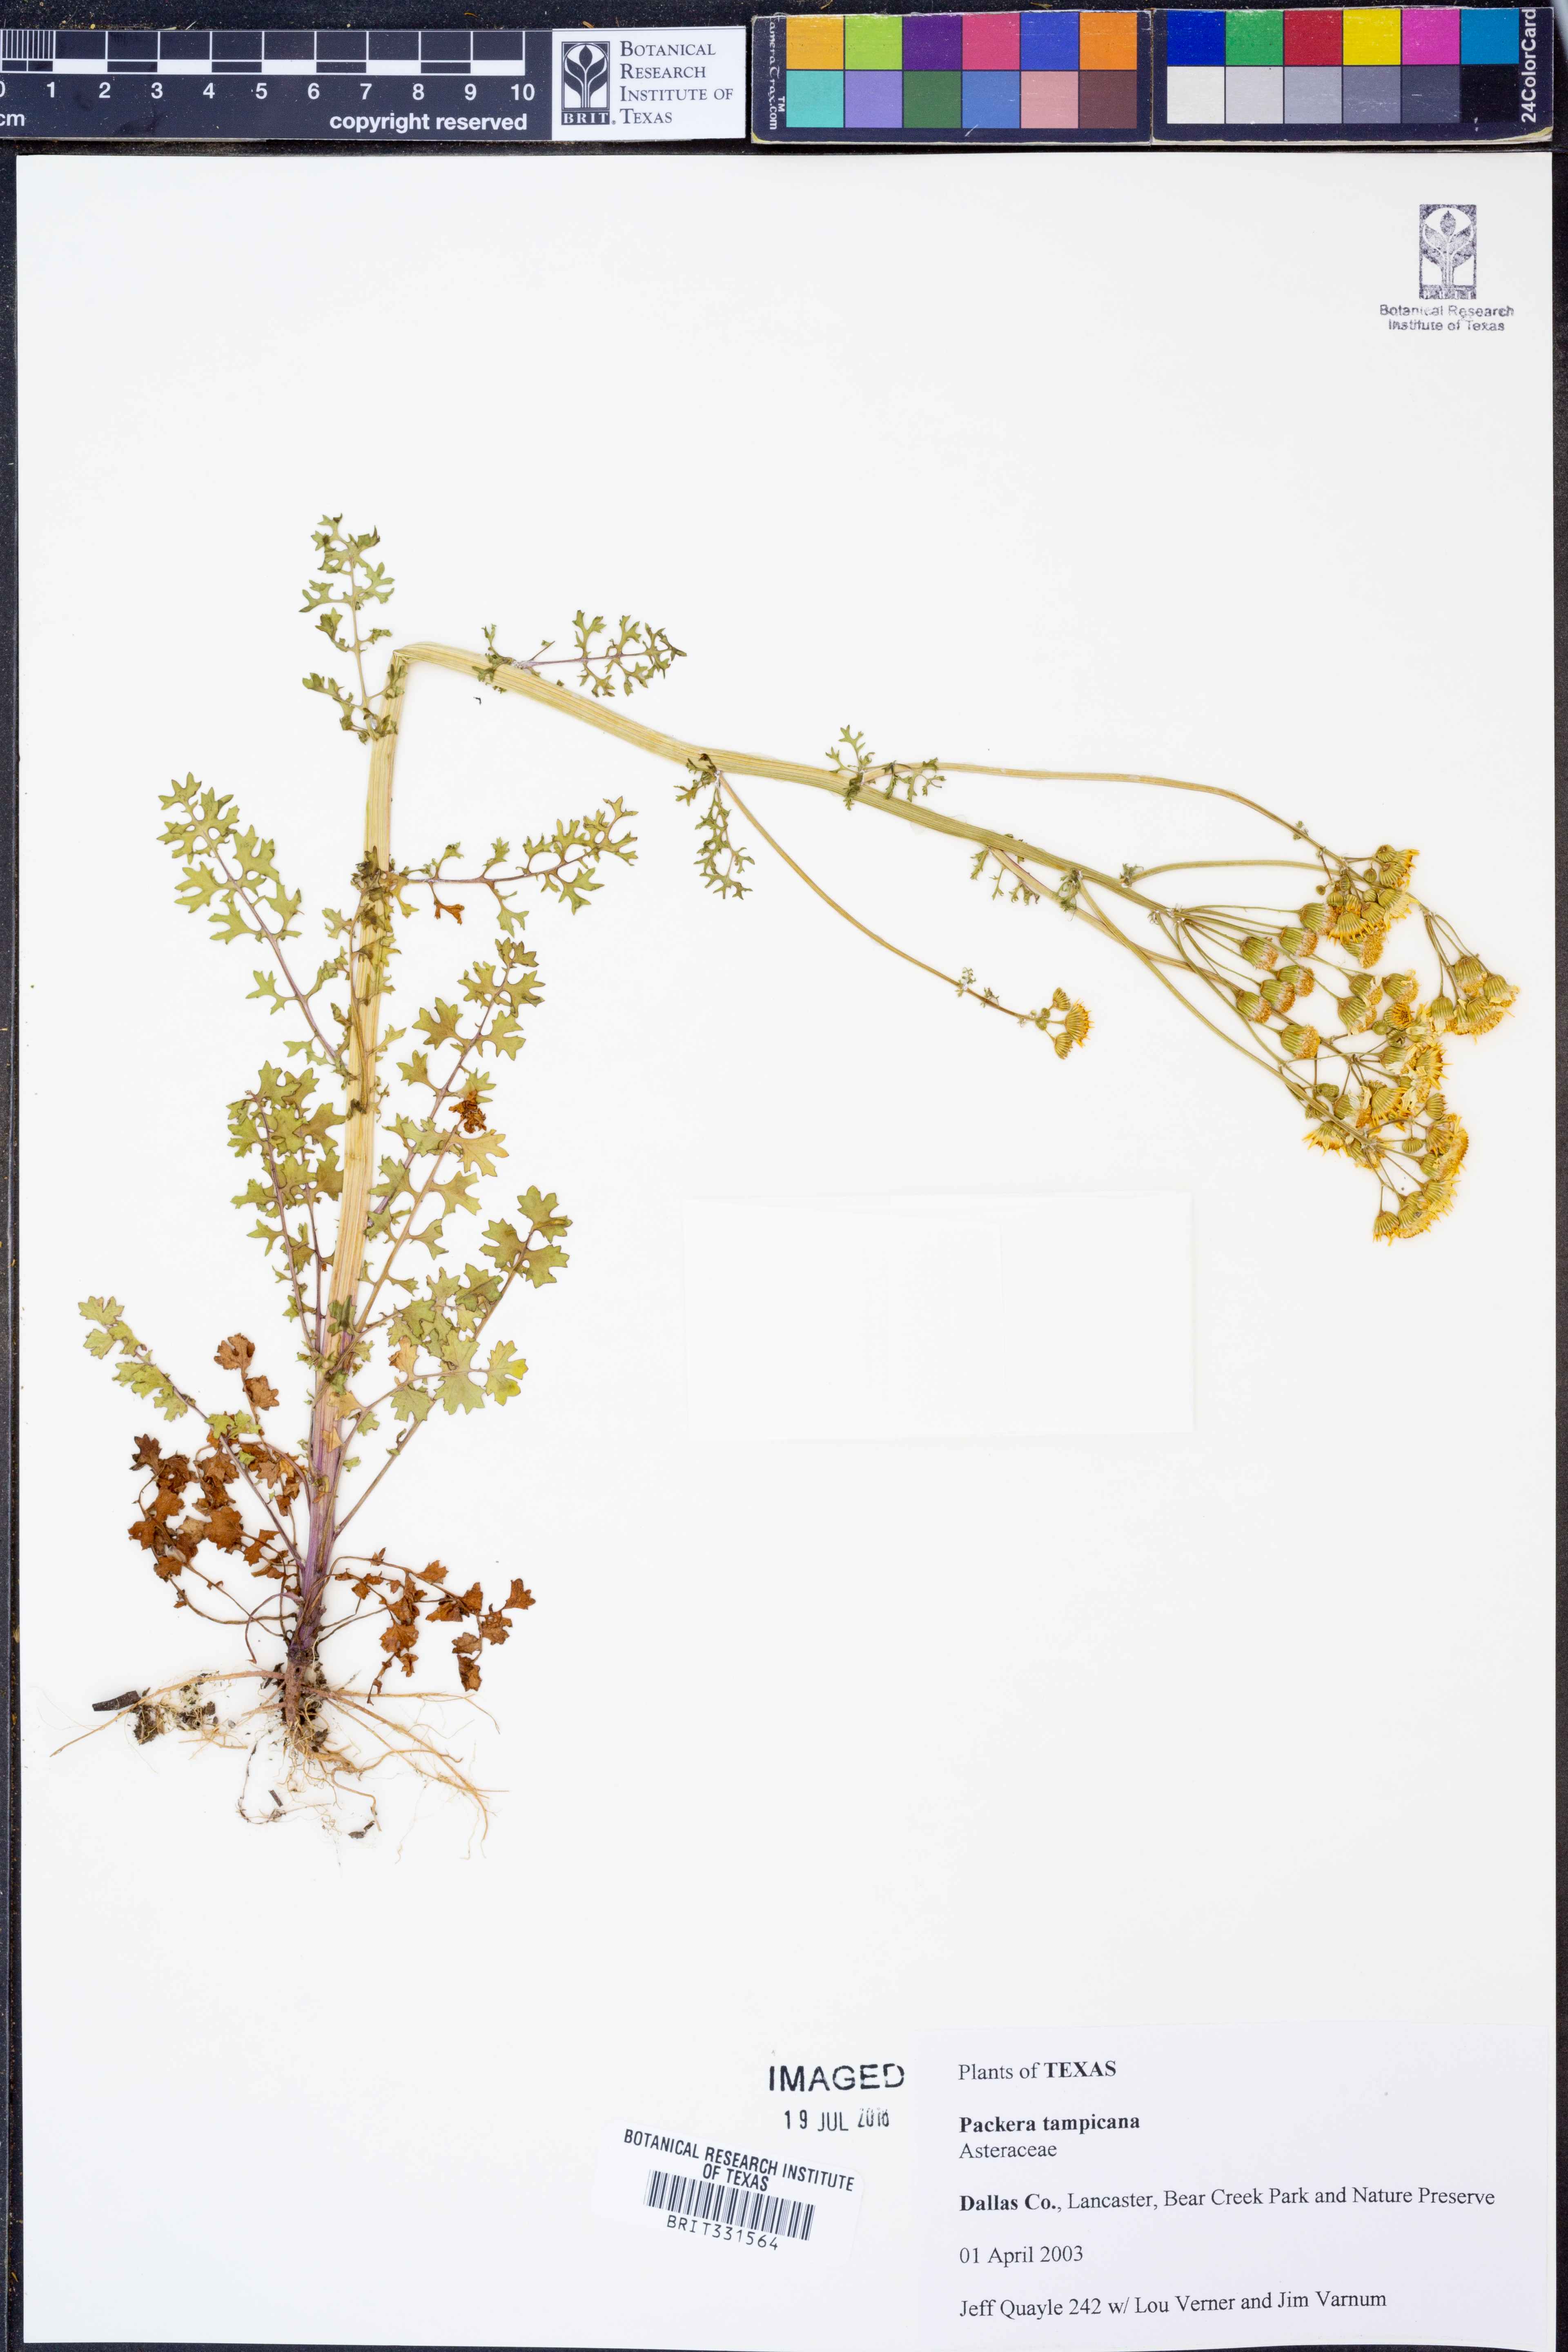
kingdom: Plantae
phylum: Tracheophyta
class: Magnoliopsida
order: Asterales
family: Asteraceae
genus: Packera
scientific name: Packera tampicana
